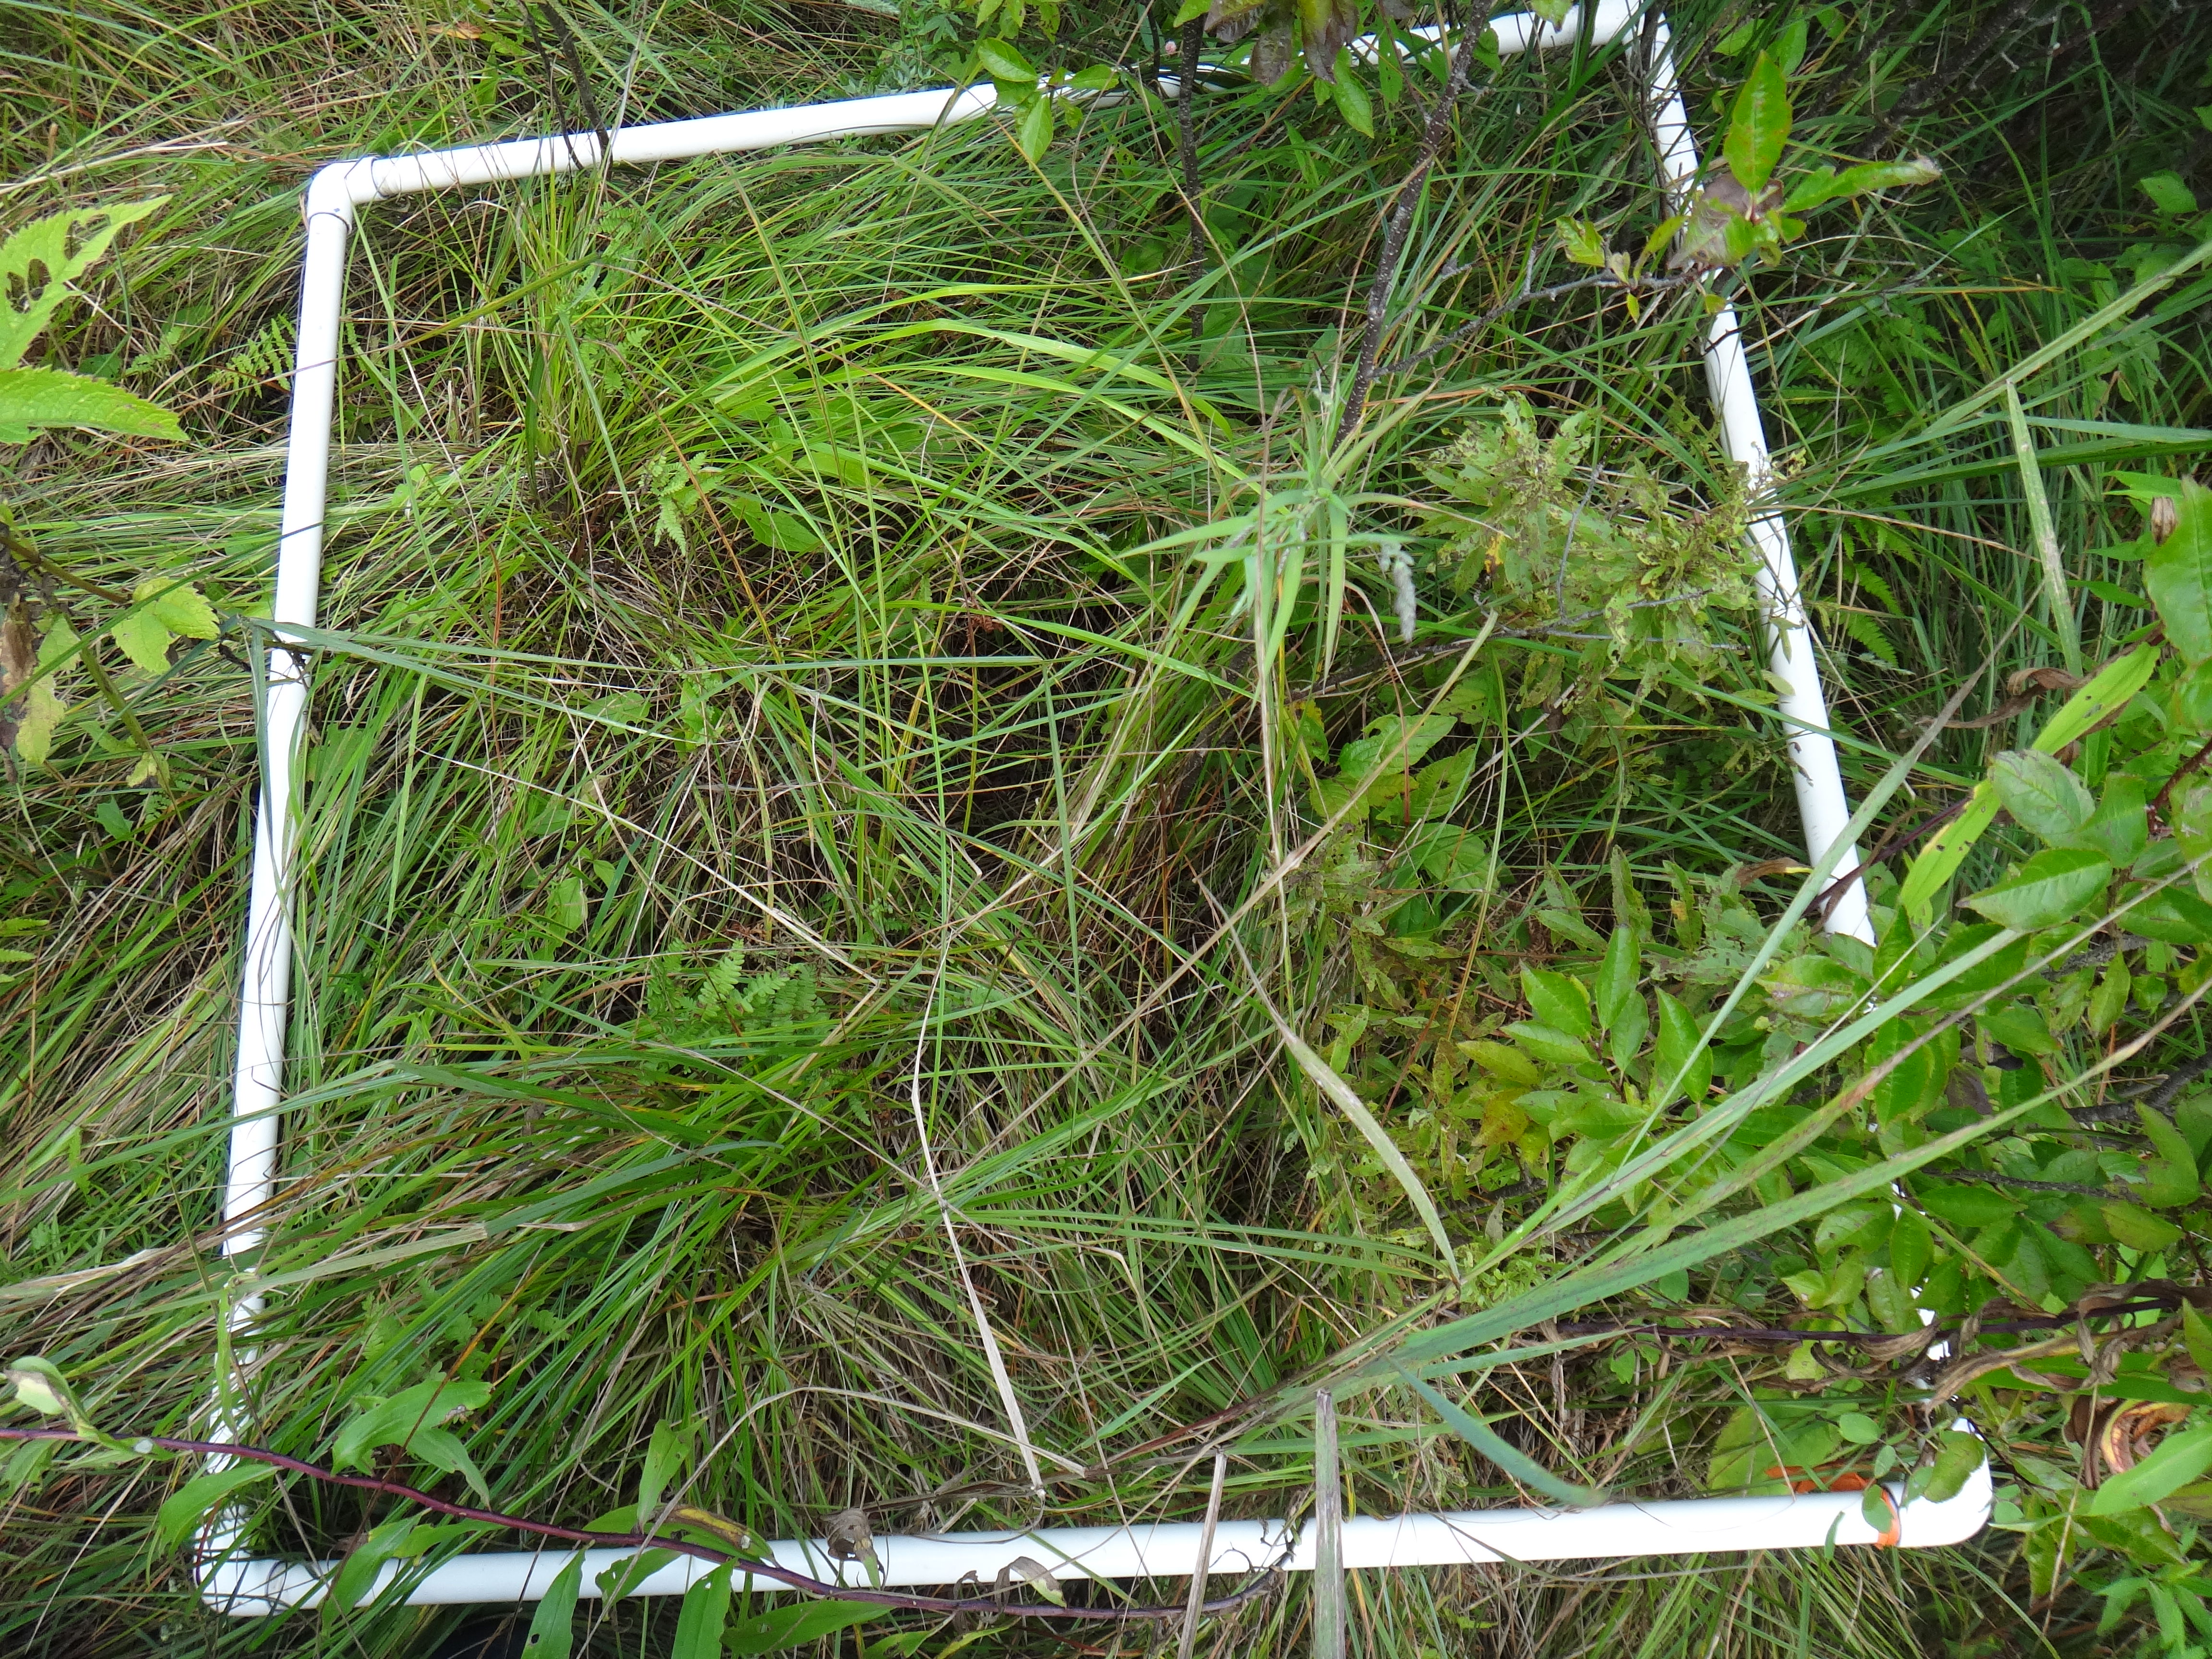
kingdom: Plantae
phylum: Tracheophyta
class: Magnoliopsida
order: Dipsacales
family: Caprifoliaceae
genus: Valeriana
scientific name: Valeriana uliginosa
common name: Marsh valerian
